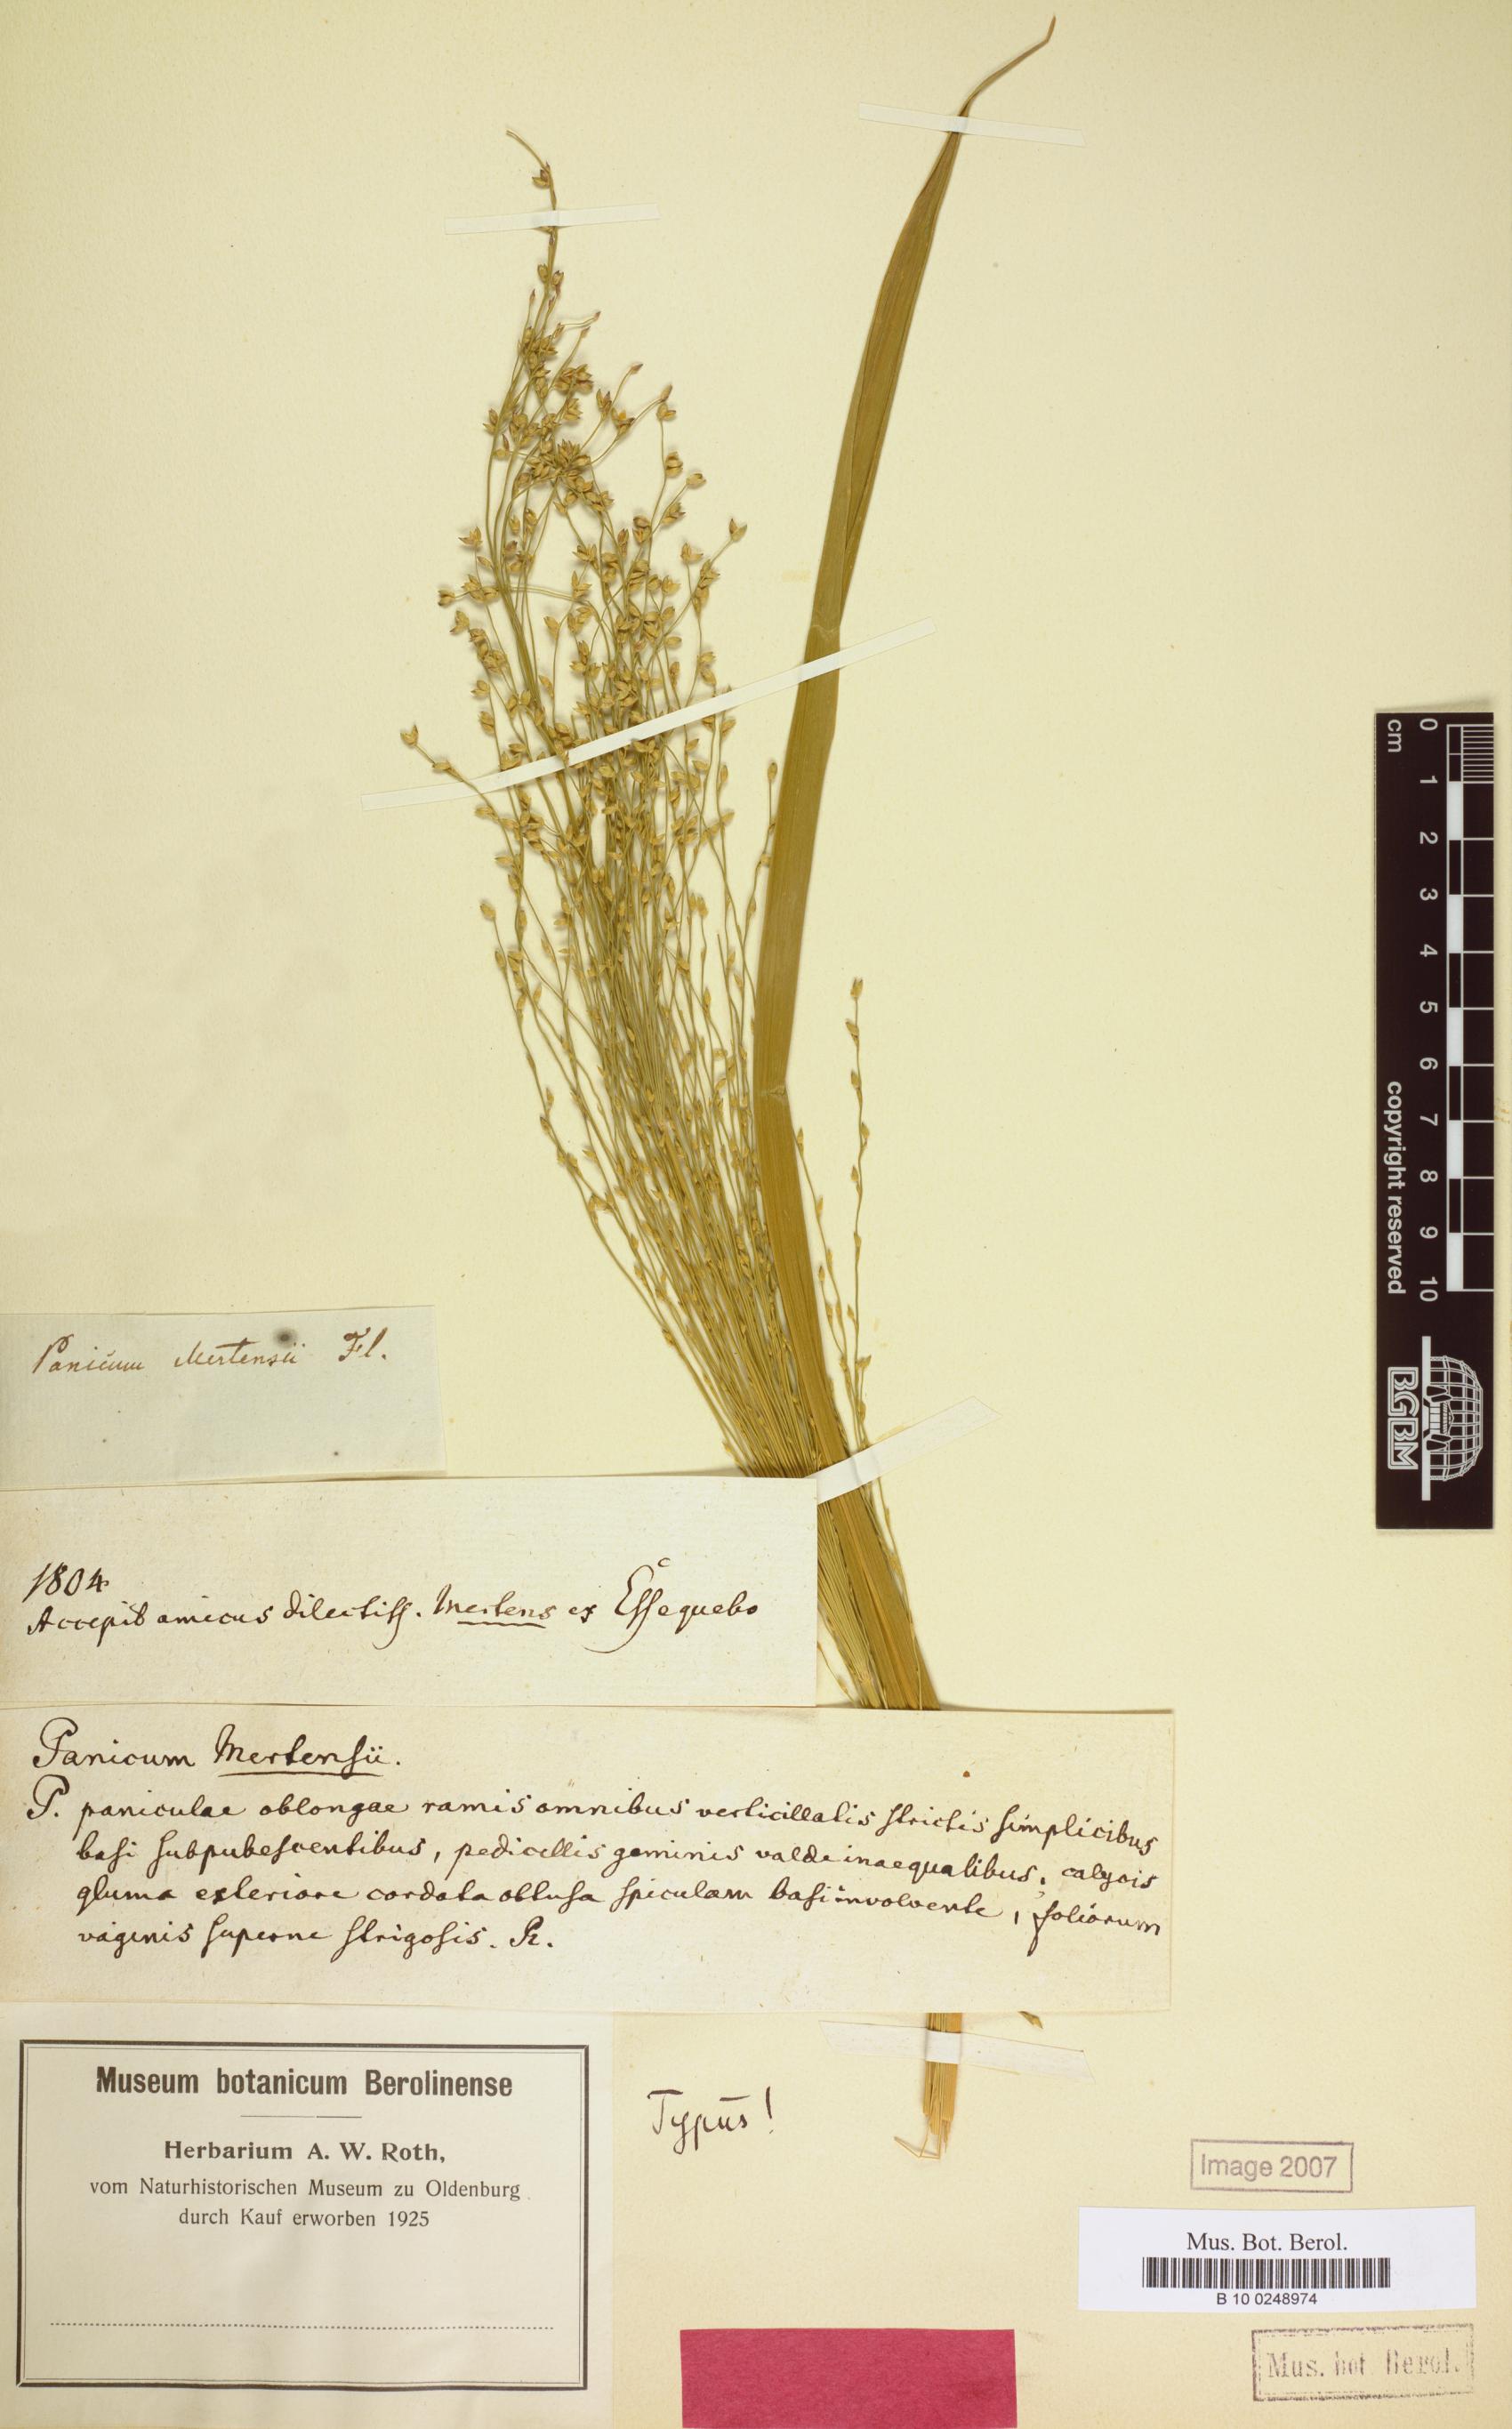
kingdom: Plantae
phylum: Tracheophyta
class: Liliopsida
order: Poales
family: Poaceae
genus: Stephostachys
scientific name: Stephostachys mertensii
